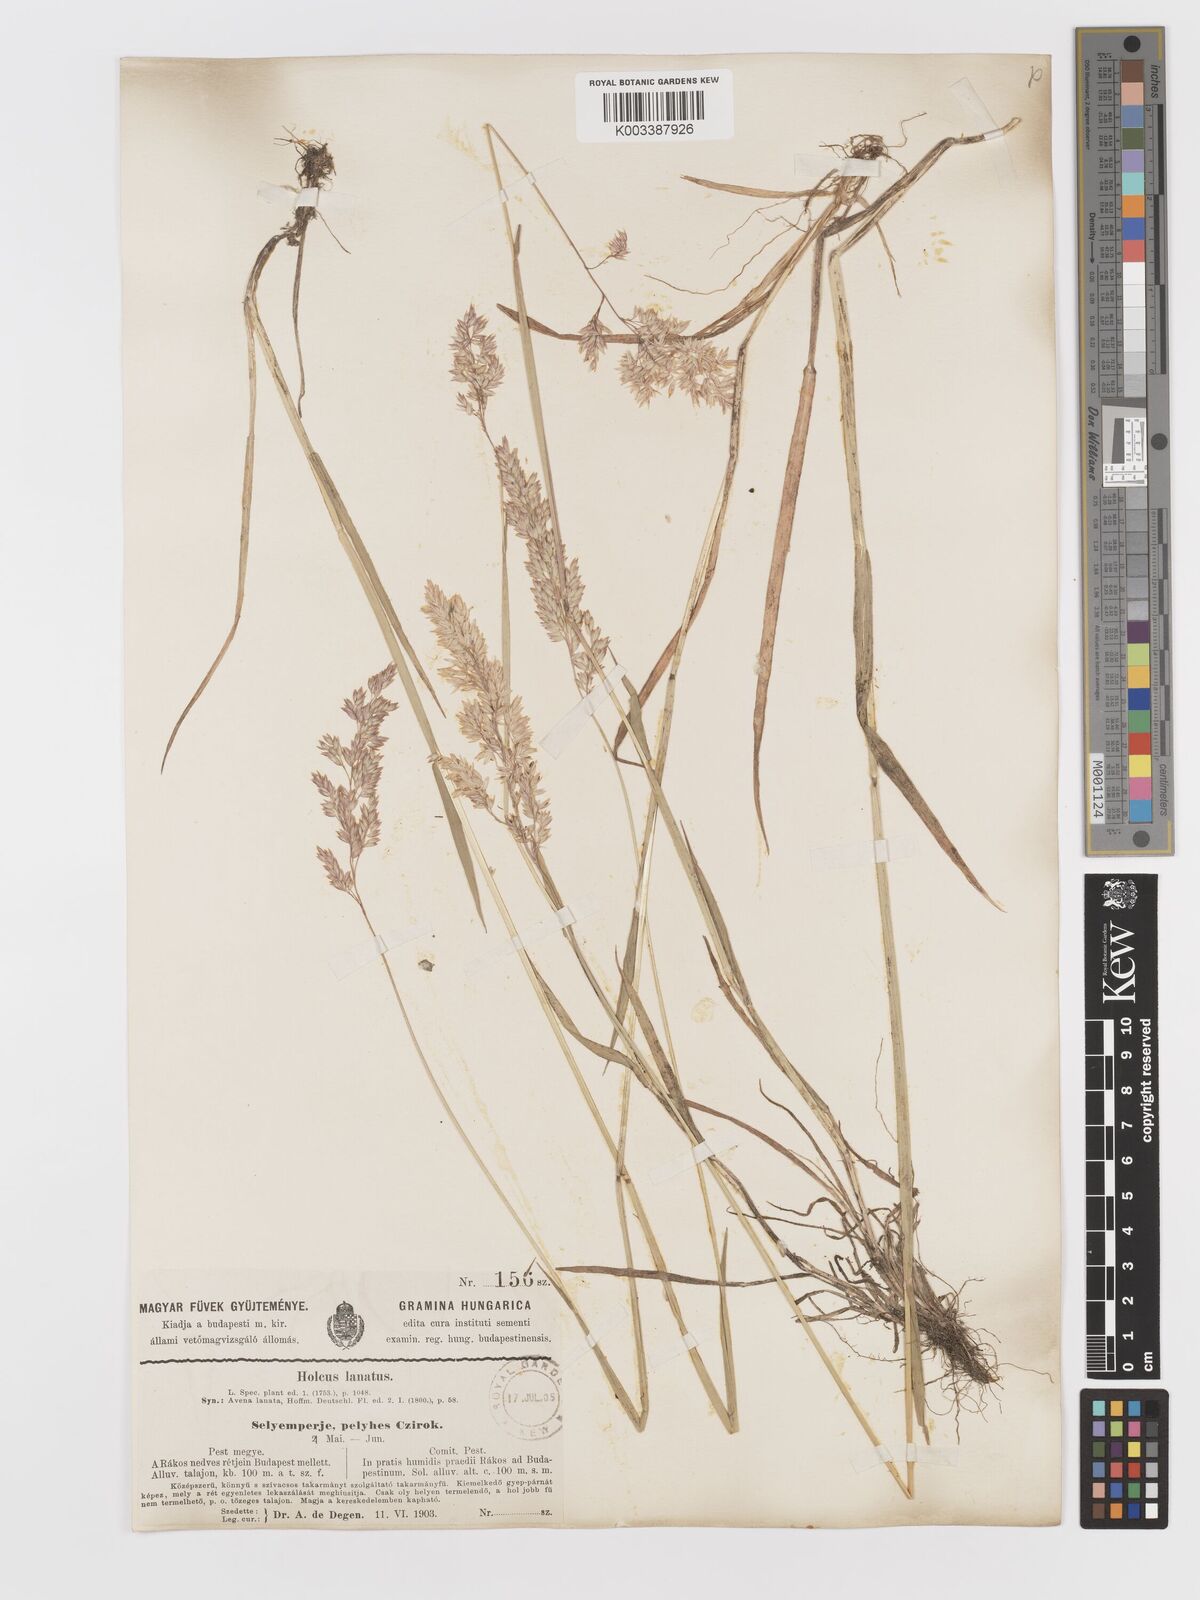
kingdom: Plantae
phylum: Tracheophyta
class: Liliopsida
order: Poales
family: Poaceae
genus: Holcus
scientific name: Holcus lanatus
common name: Yorkshire-fog
